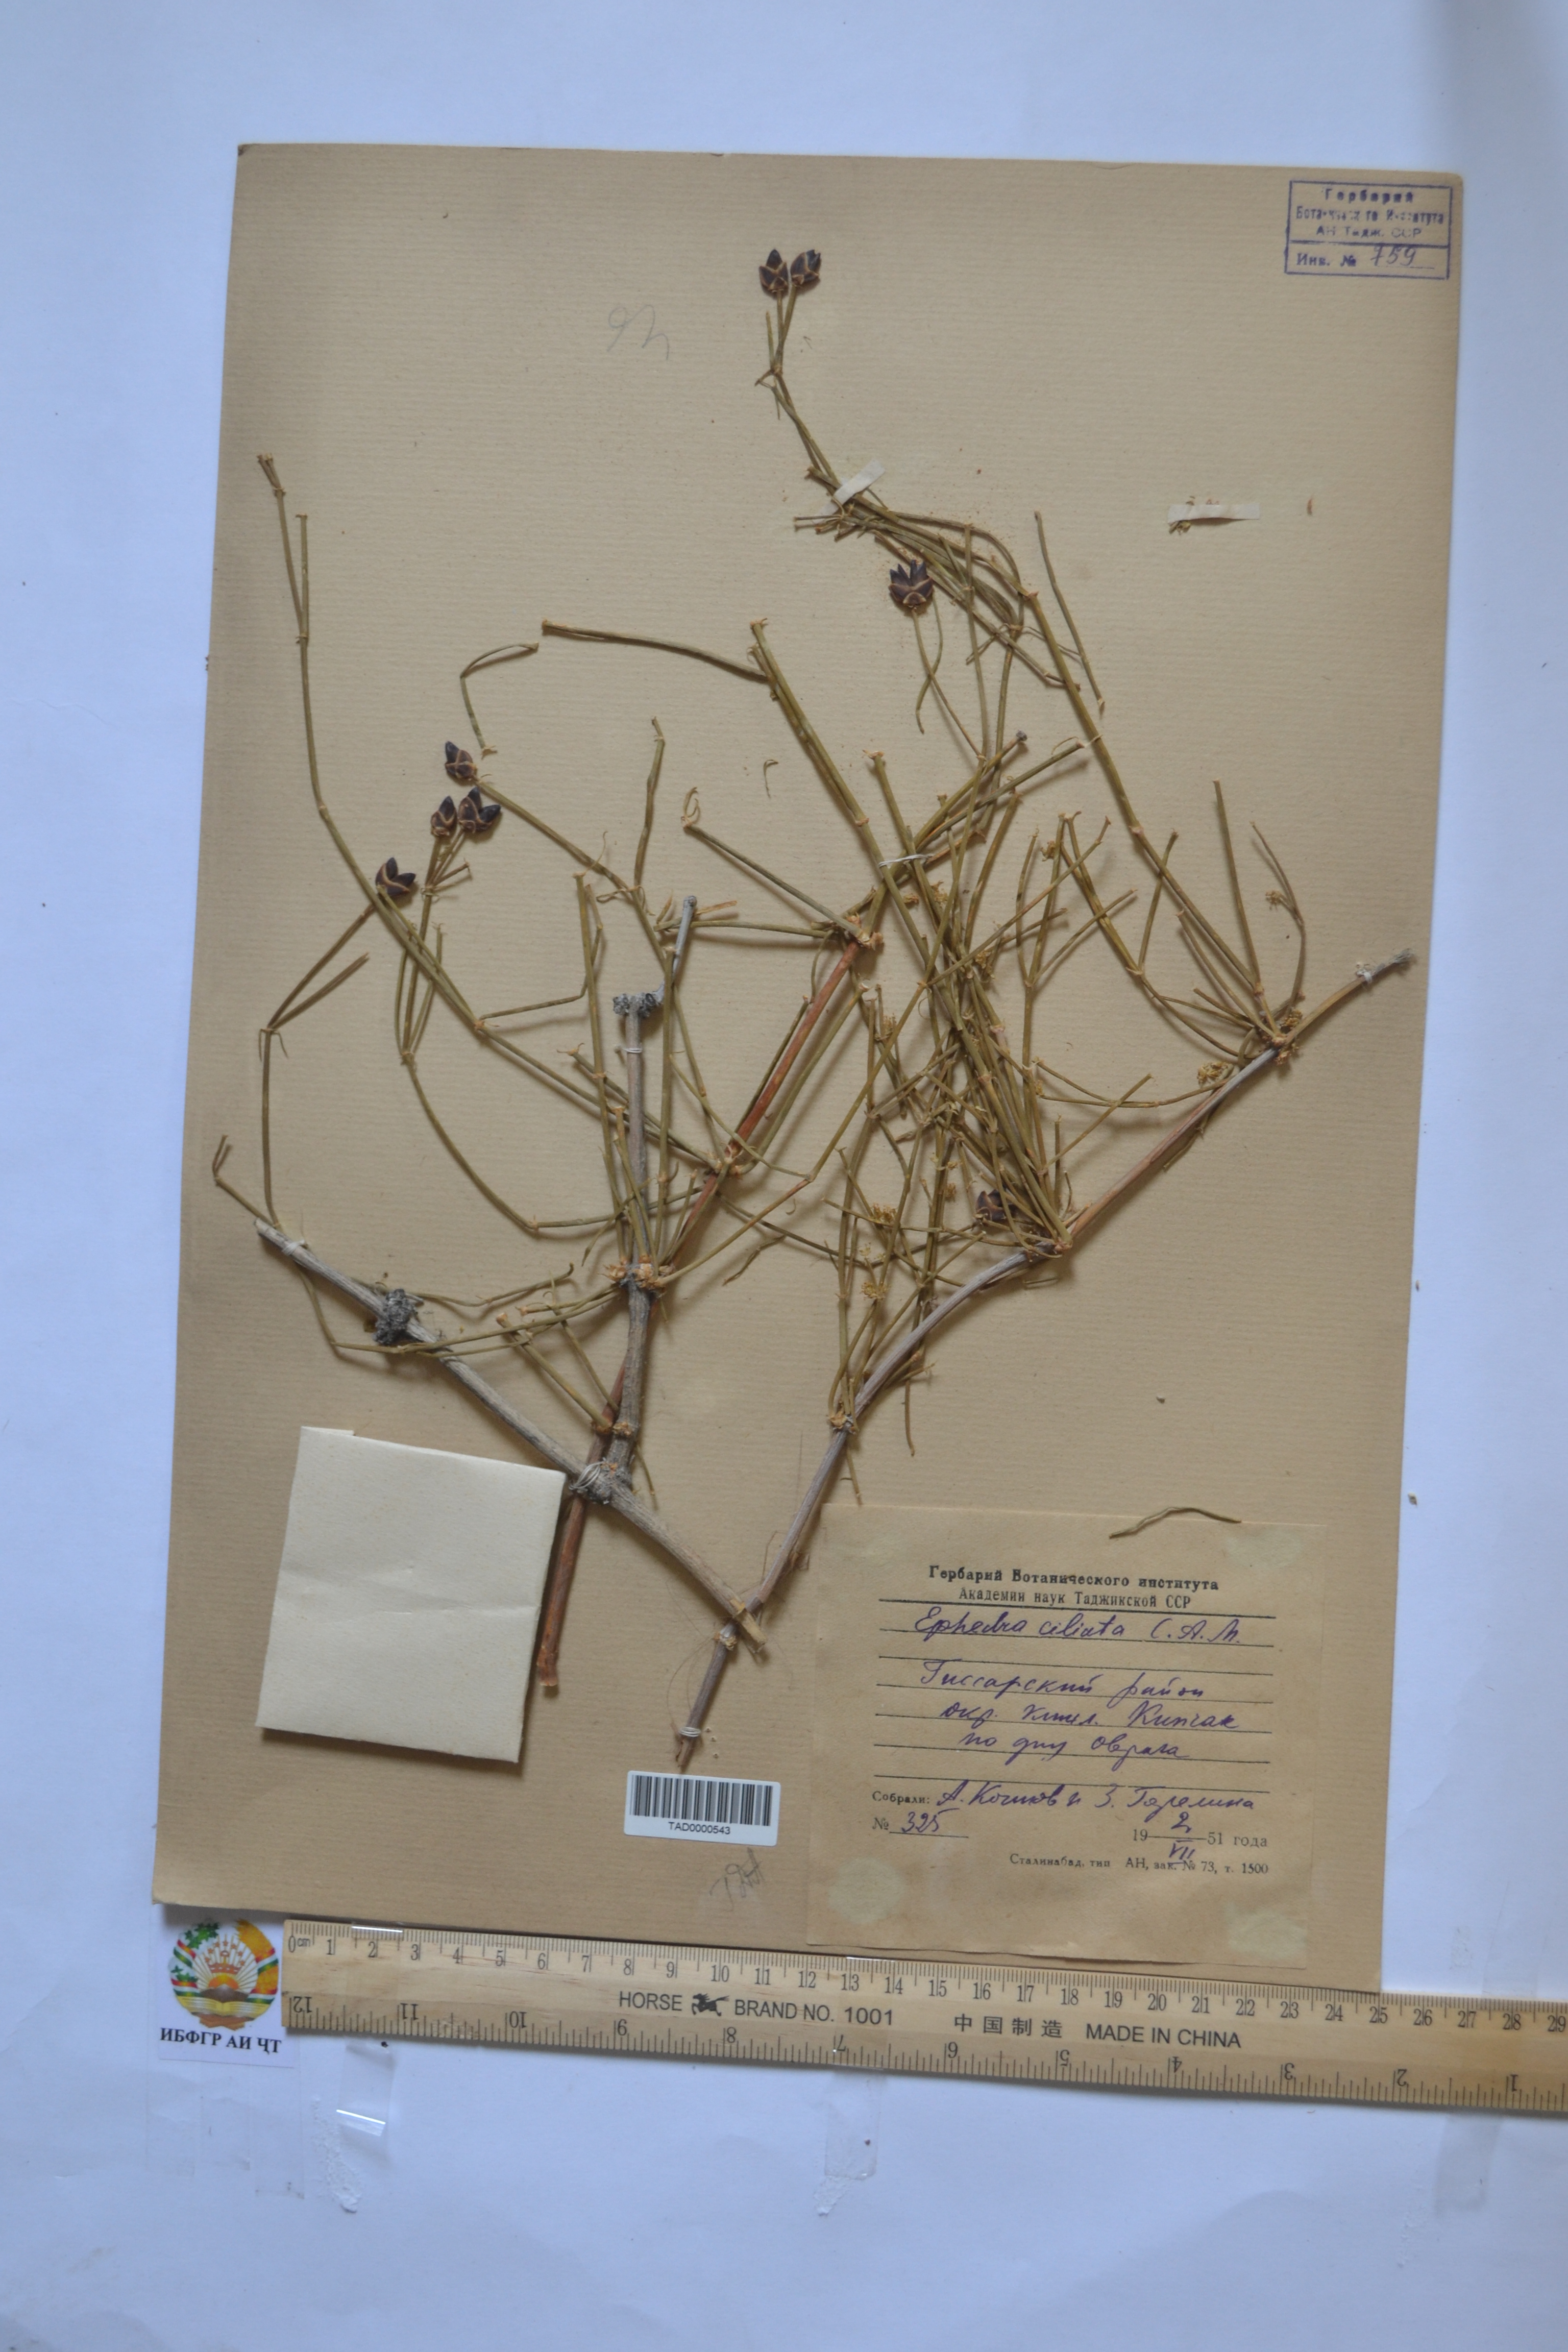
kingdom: Plantae
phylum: Tracheophyta
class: Gnetopsida
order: Ephedrales
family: Ephedraceae
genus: Ephedra
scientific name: Ephedra ciliata
